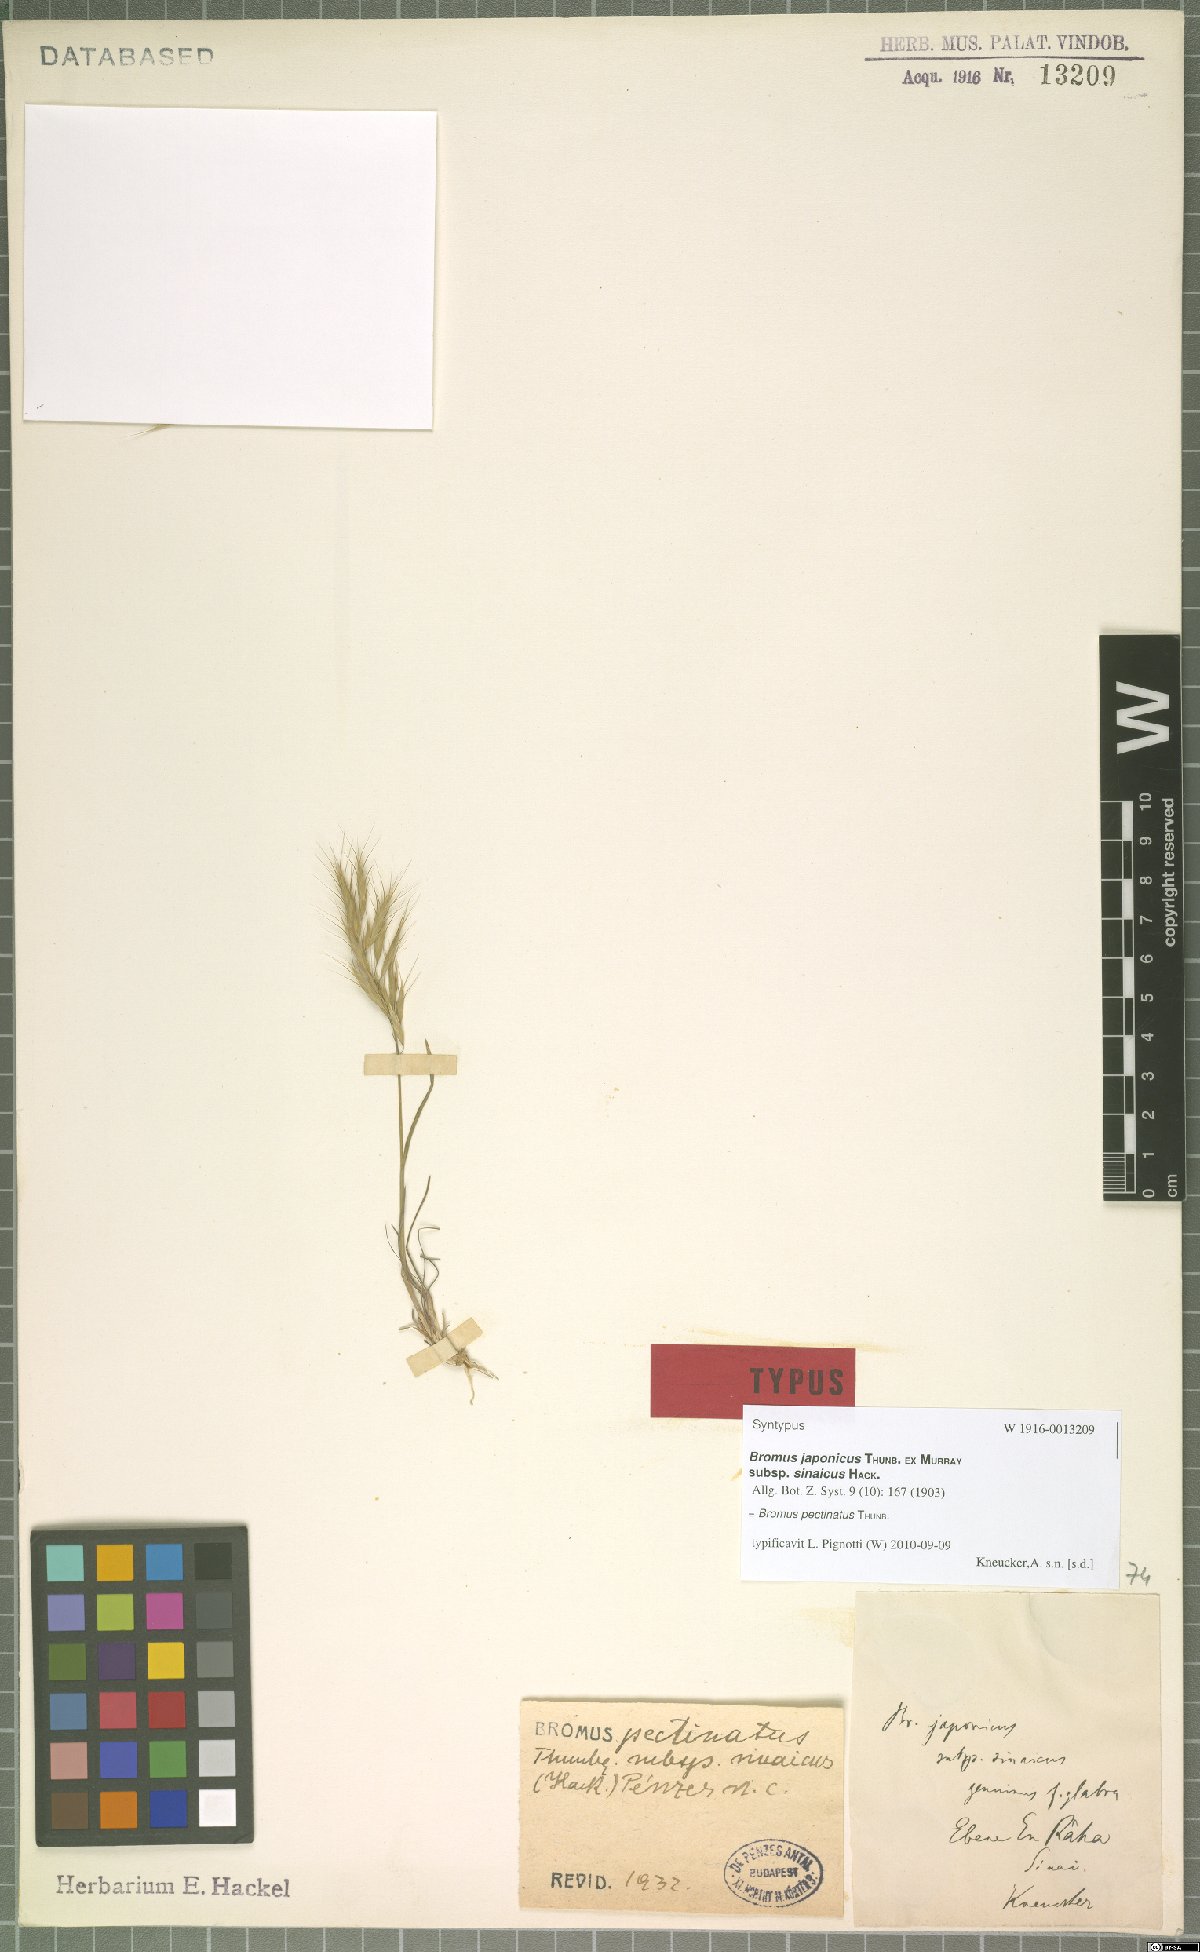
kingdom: Plantae
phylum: Tracheophyta
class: Liliopsida
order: Poales
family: Poaceae
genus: Bromus
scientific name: Bromus pectinatus
